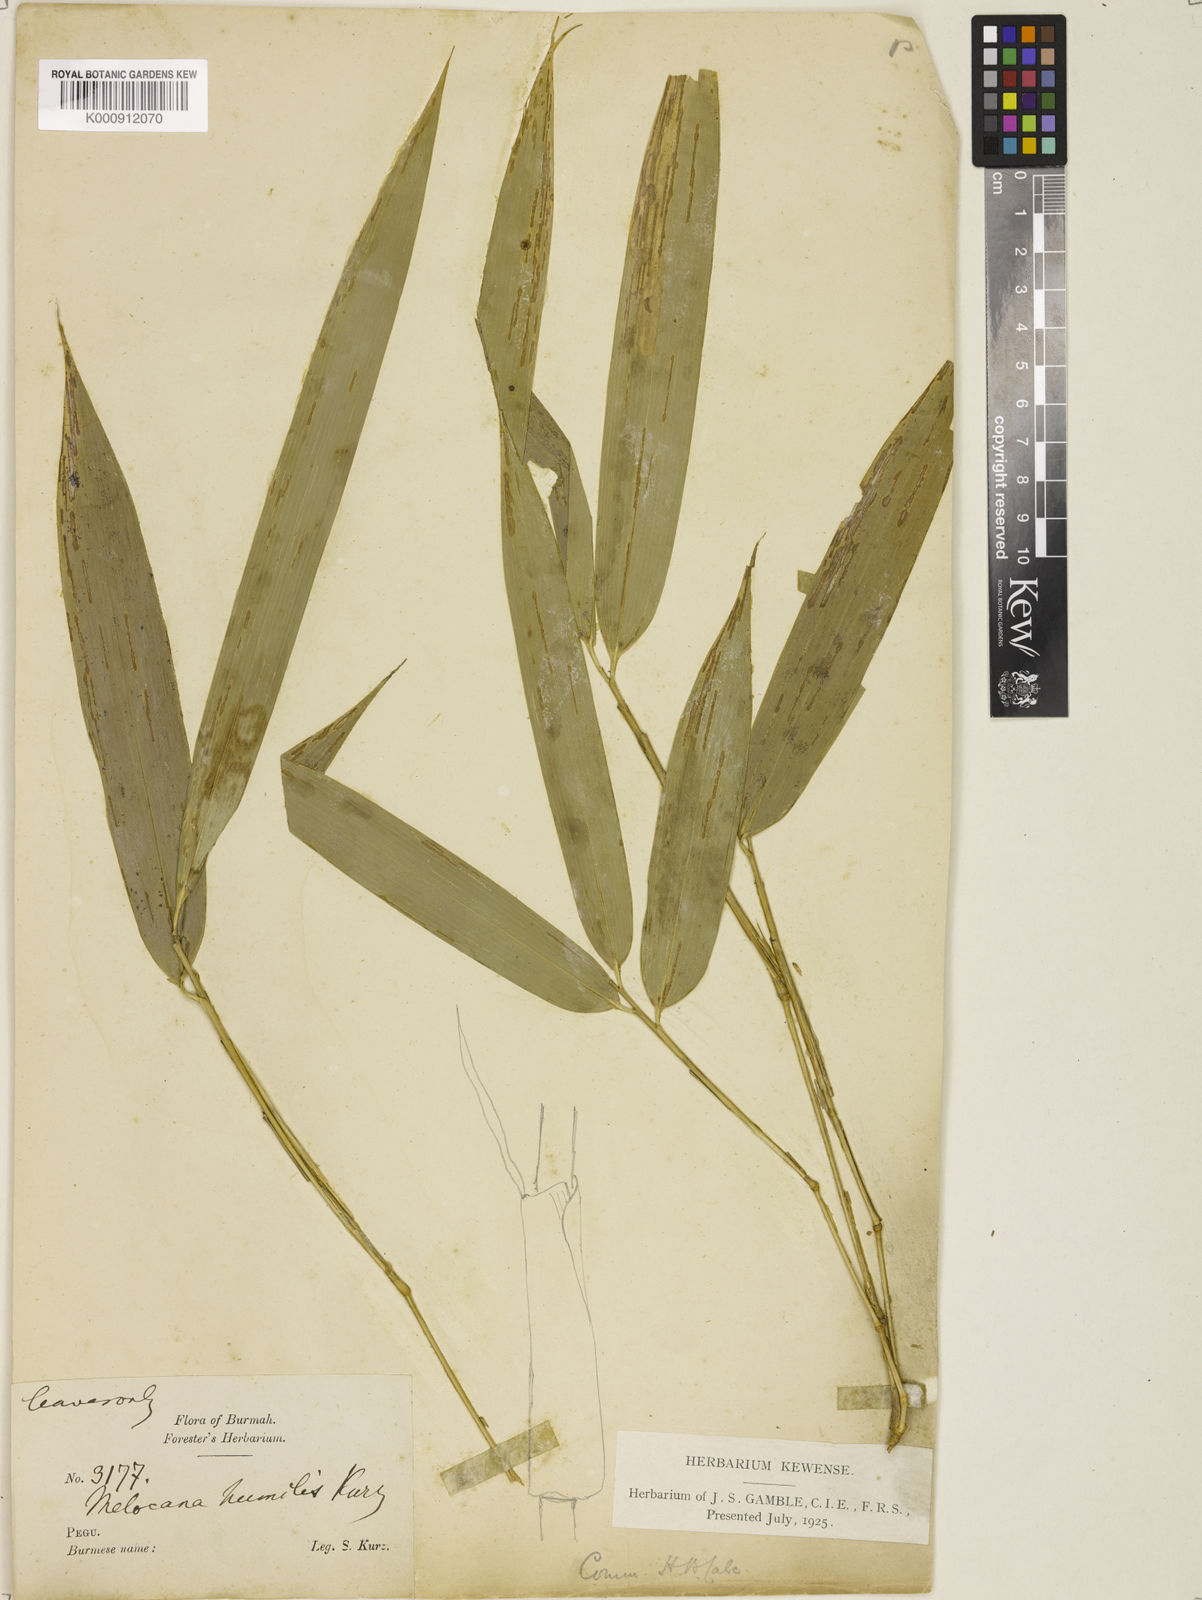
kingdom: Plantae
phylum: Tracheophyta
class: Liliopsida
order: Poales
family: Poaceae
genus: Melocanna
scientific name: Melocanna arundina
